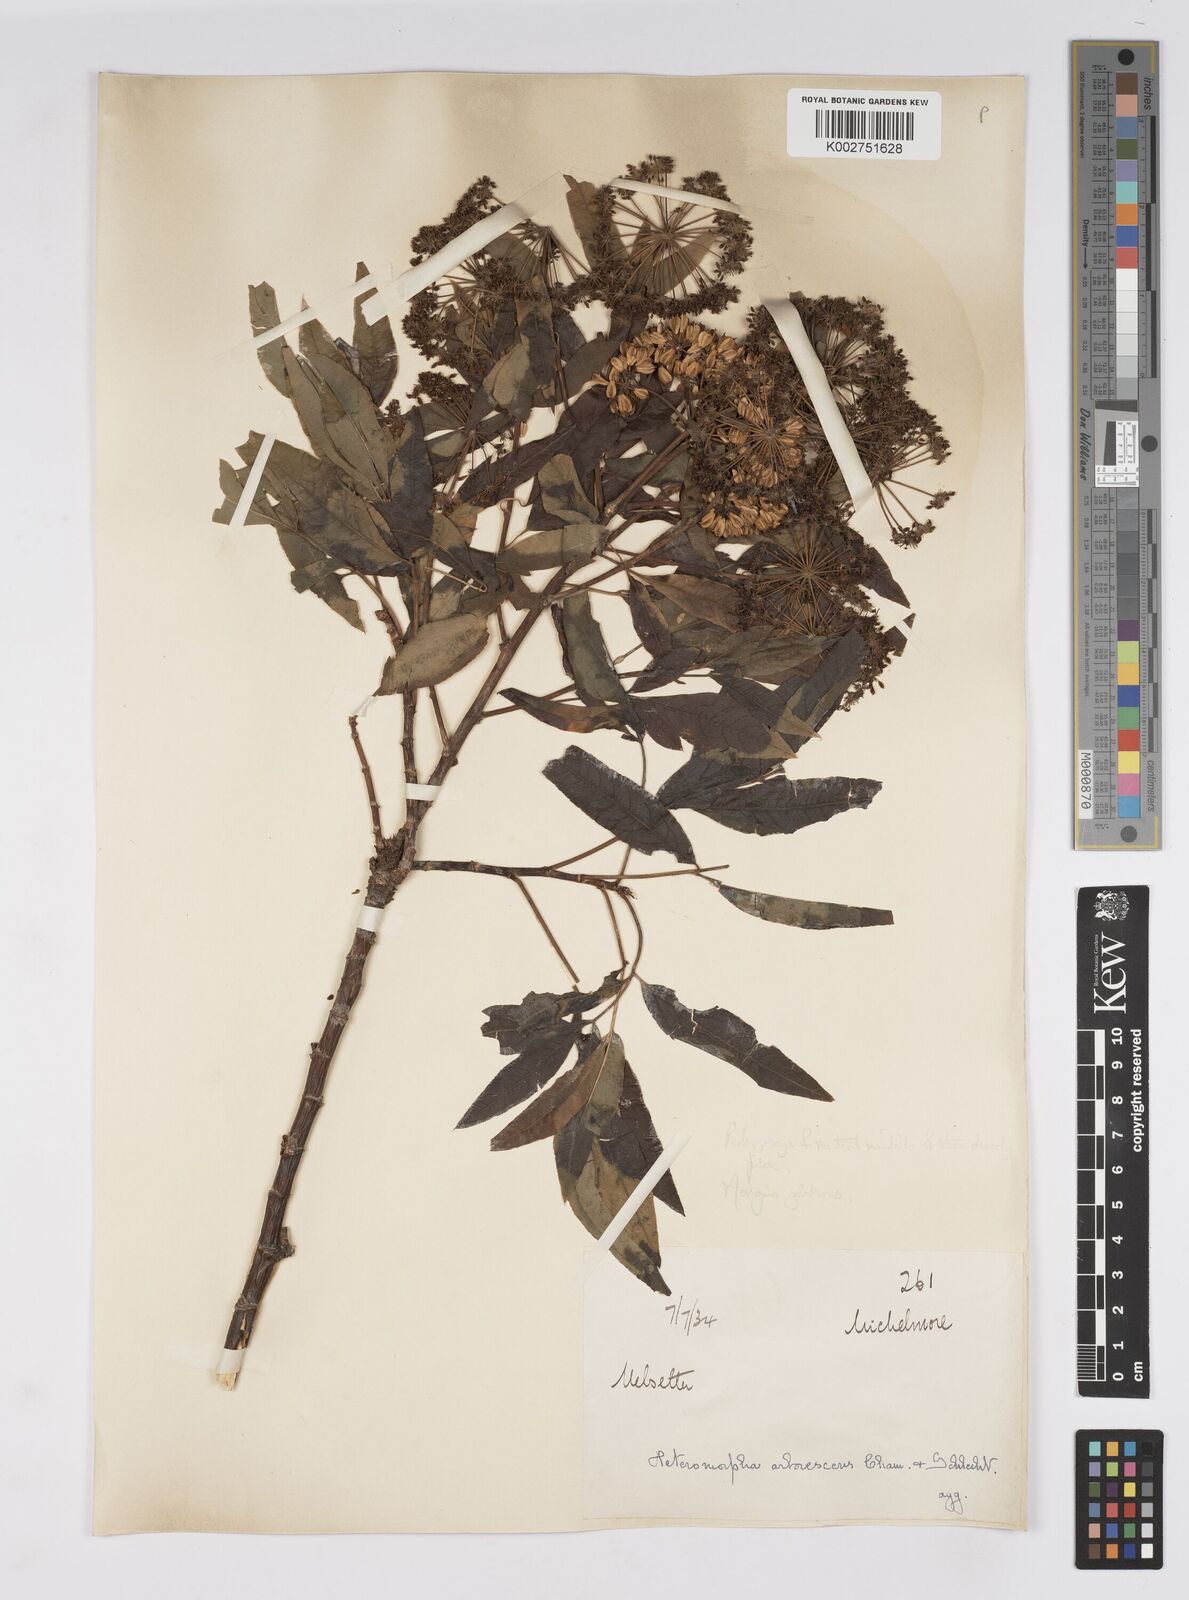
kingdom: Plantae
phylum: Tracheophyta
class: Magnoliopsida
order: Apiales
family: Apiaceae
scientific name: Apiaceae
